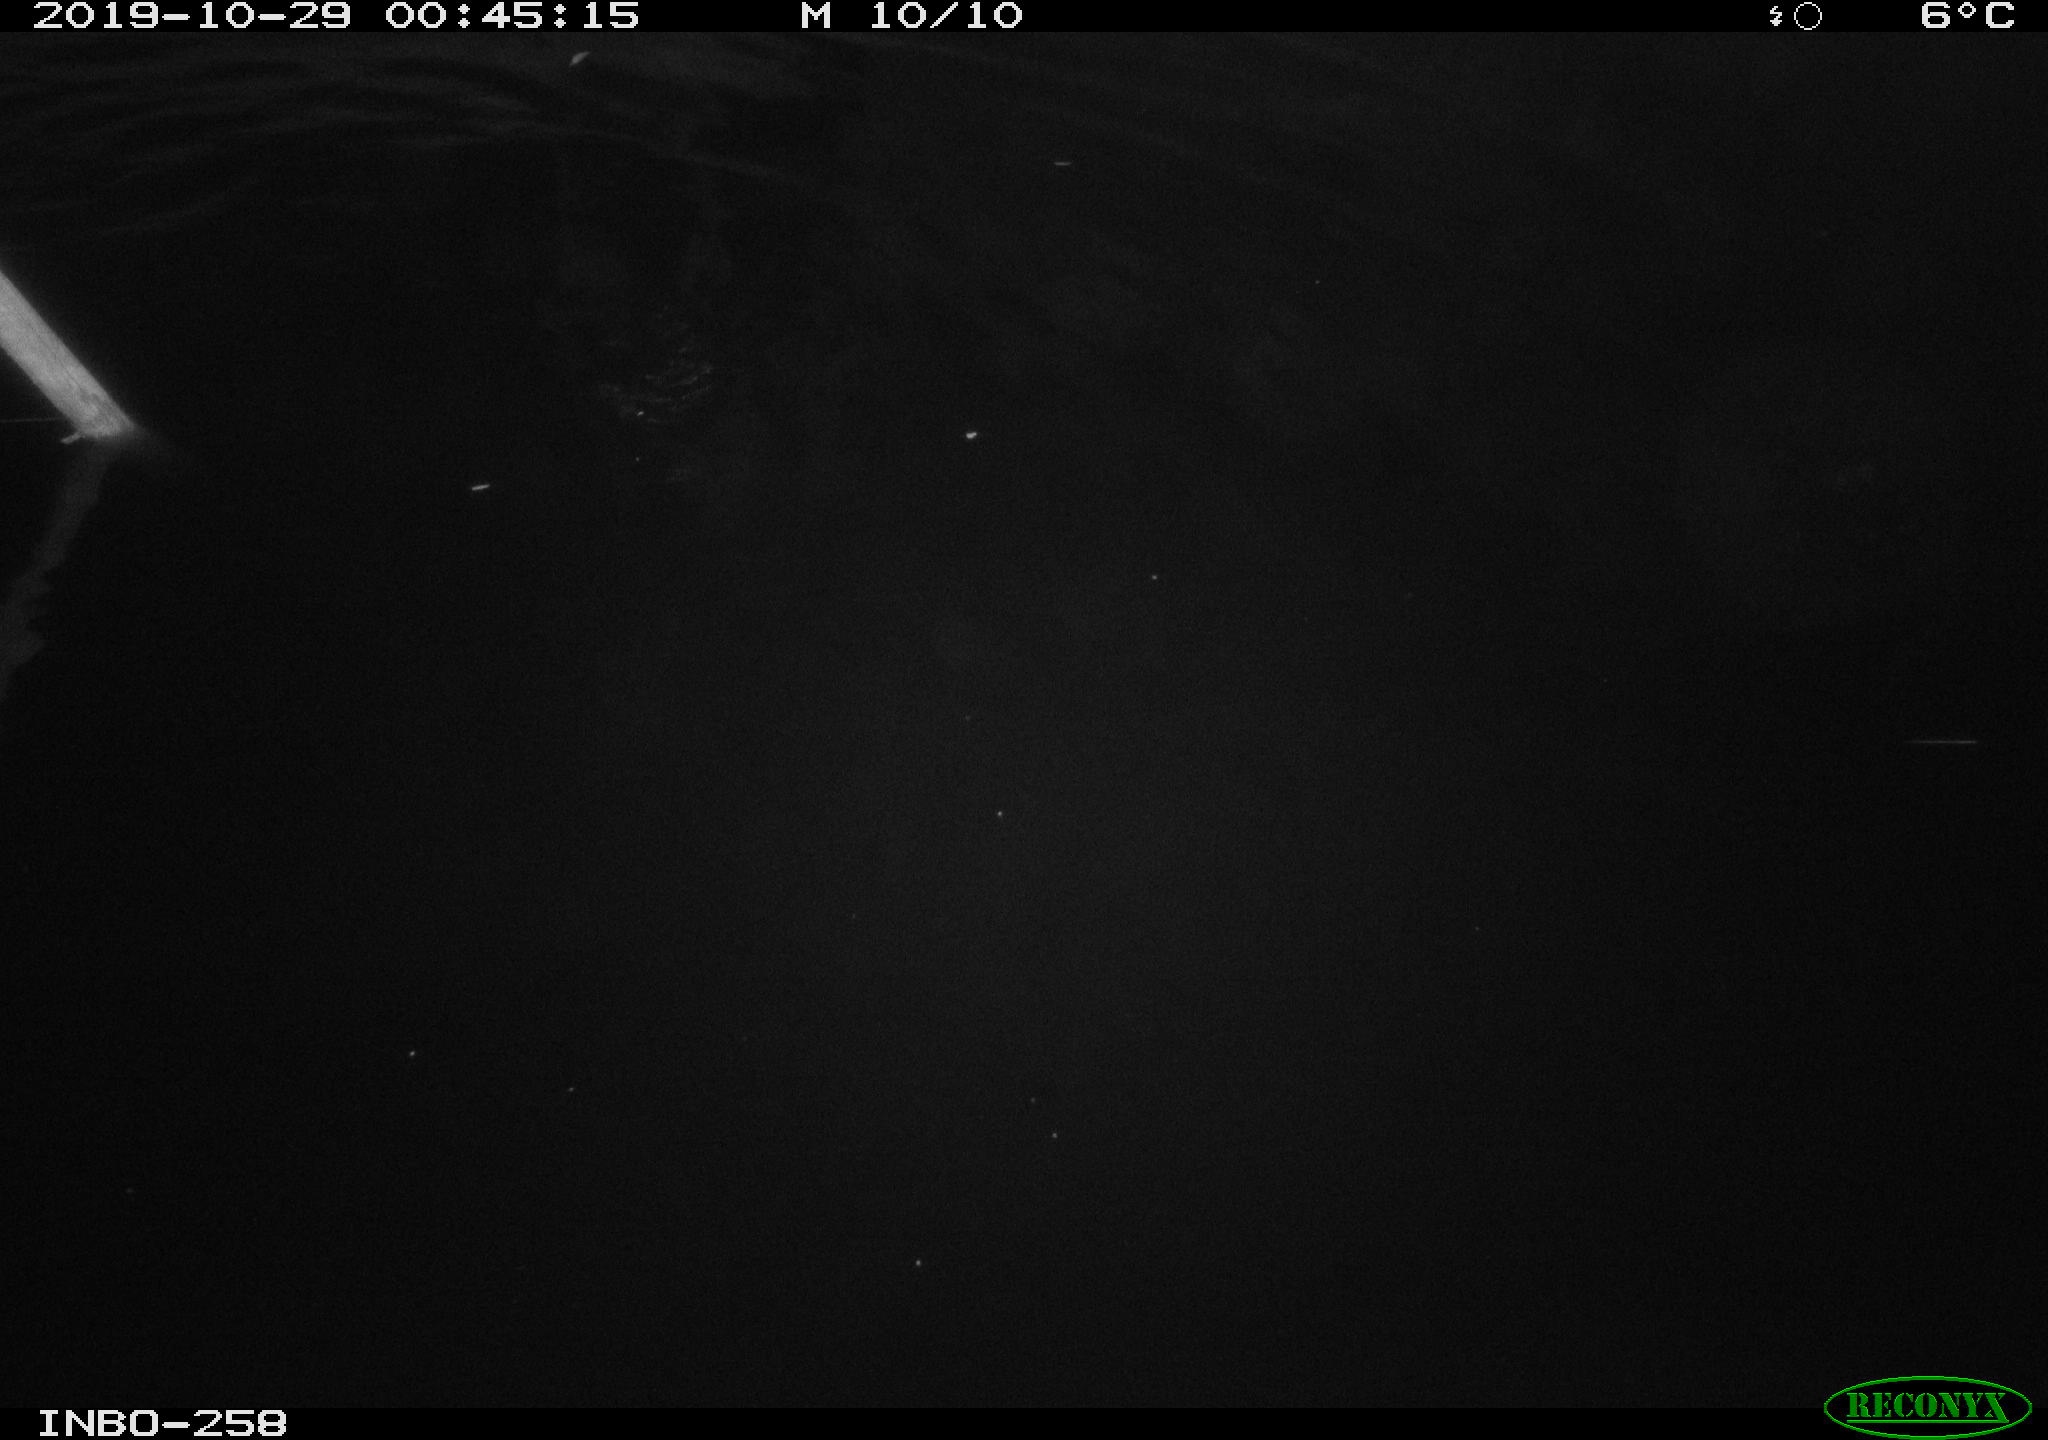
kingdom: Animalia
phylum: Chordata
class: Aves
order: Anseriformes
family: Anatidae
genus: Anas
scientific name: Anas platyrhynchos
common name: Mallard
